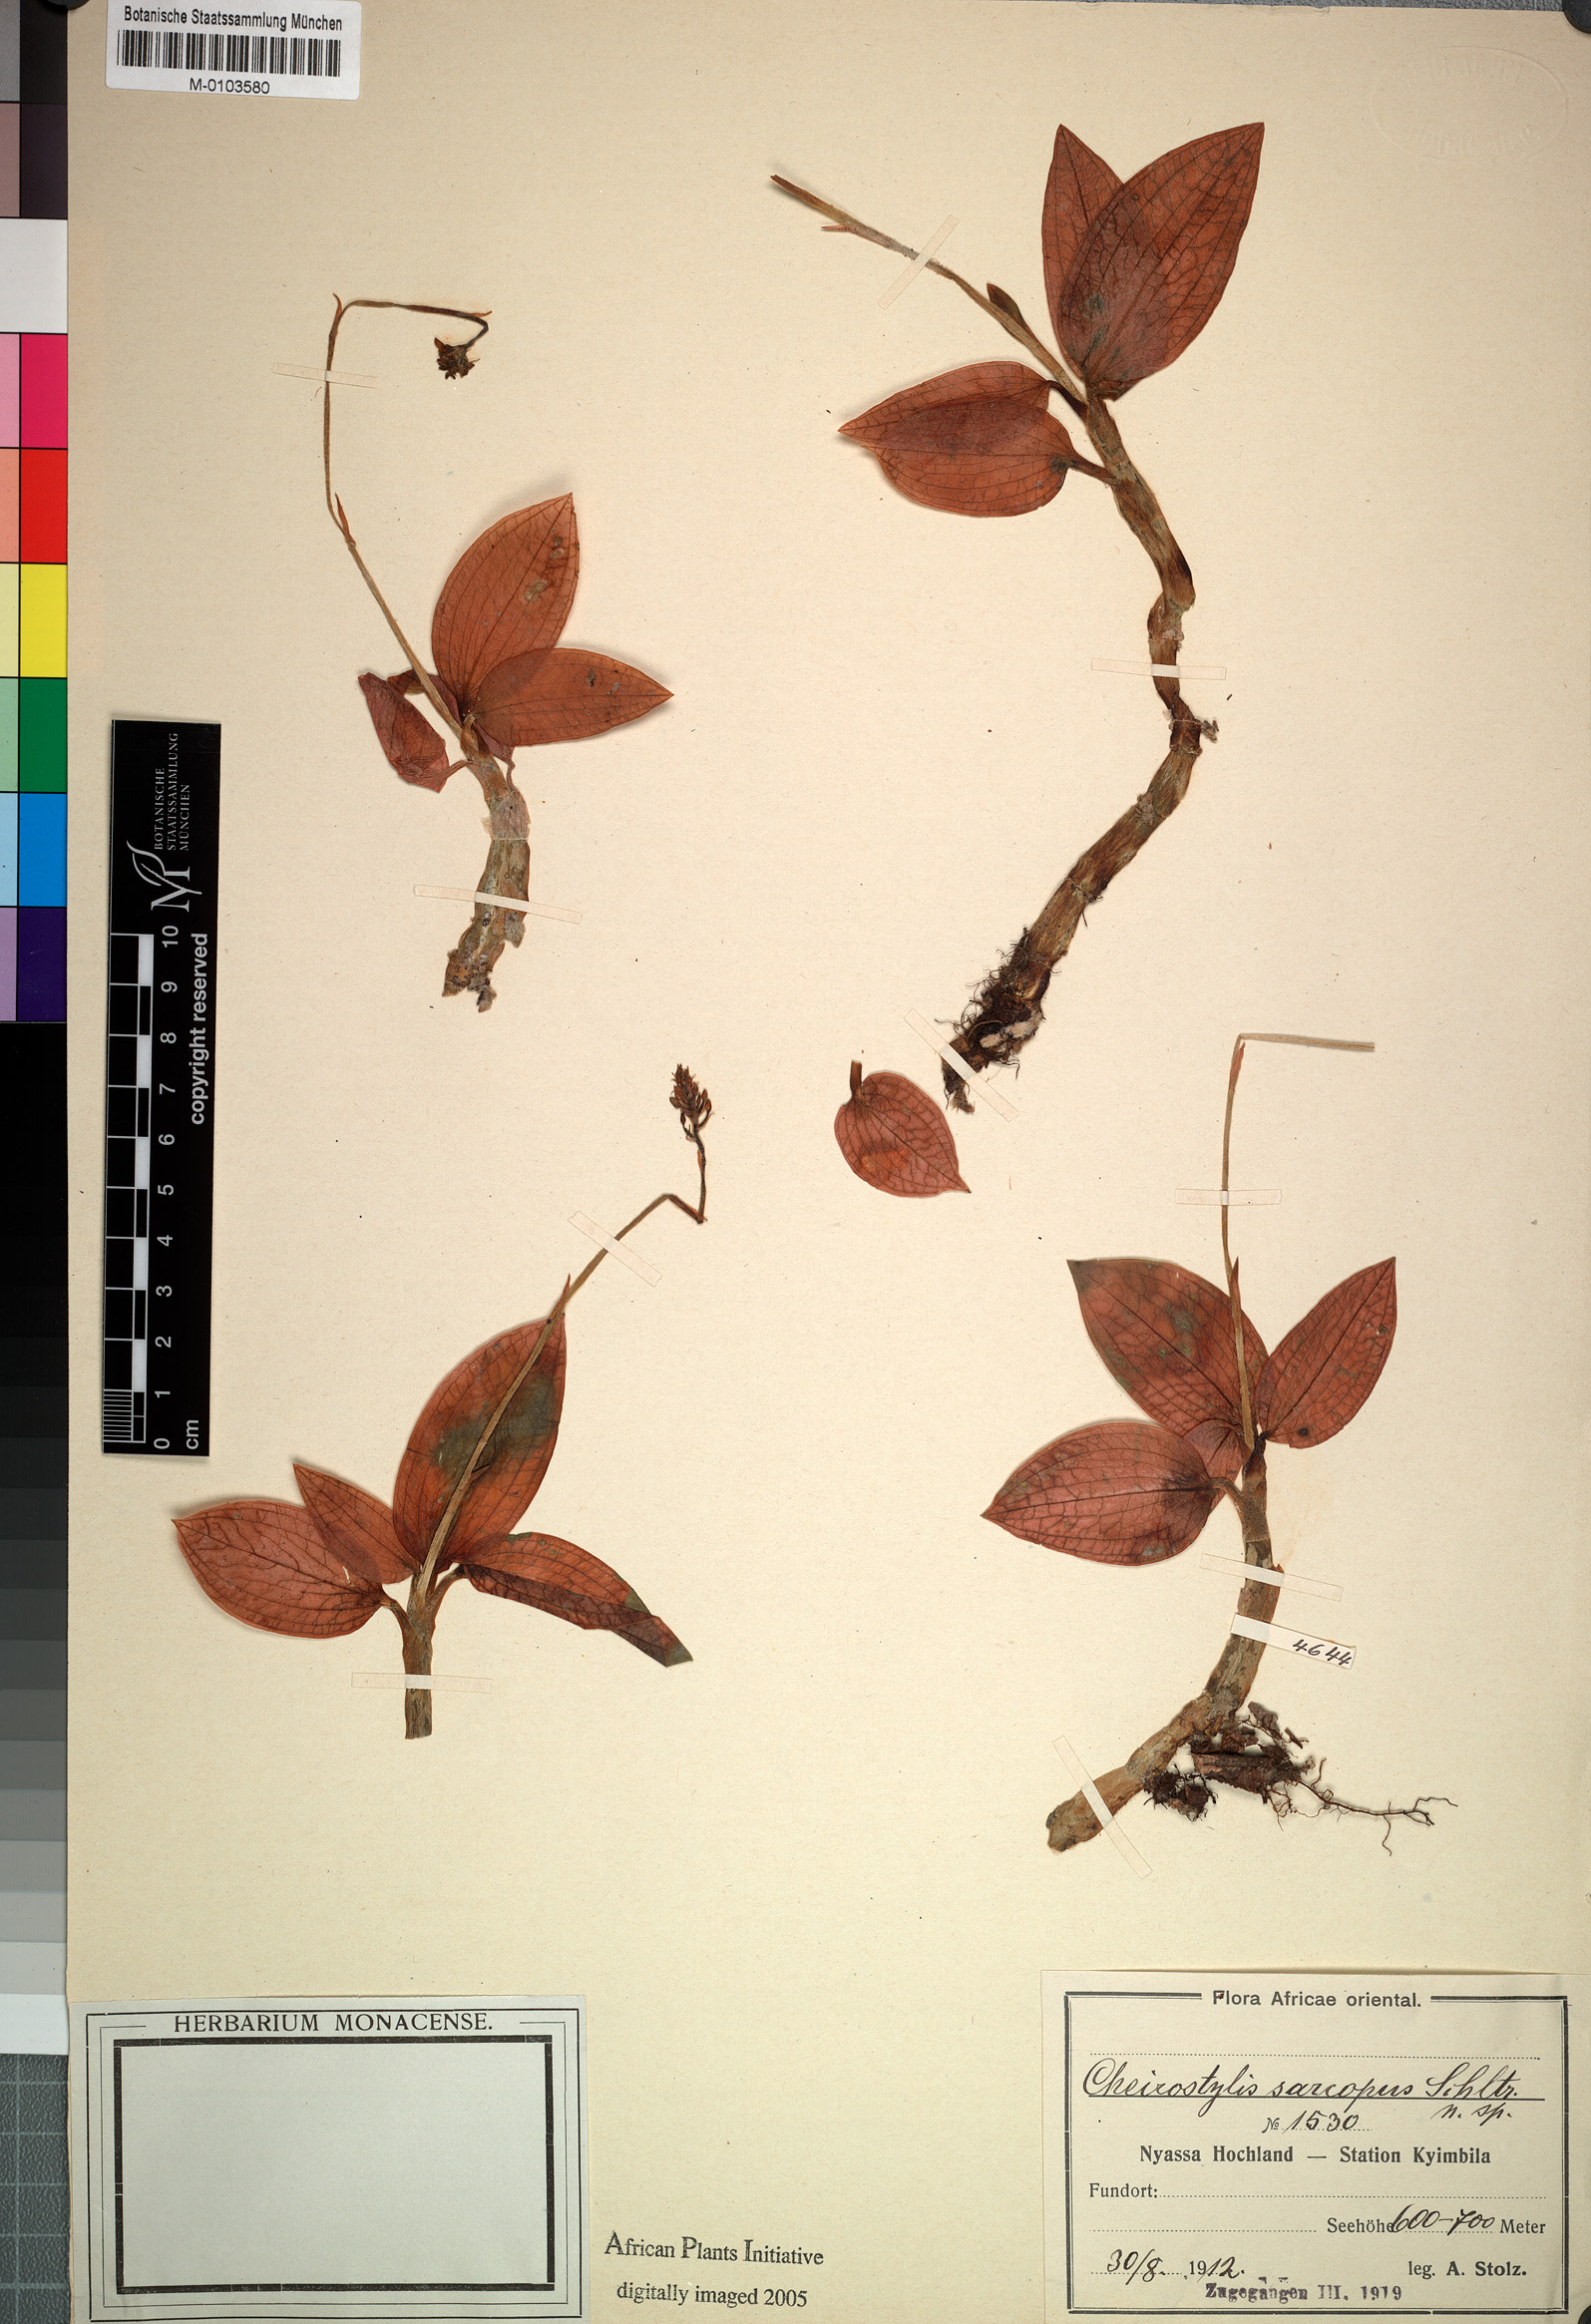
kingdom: Plantae
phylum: Tracheophyta
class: Liliopsida
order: Asparagales
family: Orchidaceae
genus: Cheirostylis
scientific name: Cheirostylis nuda
